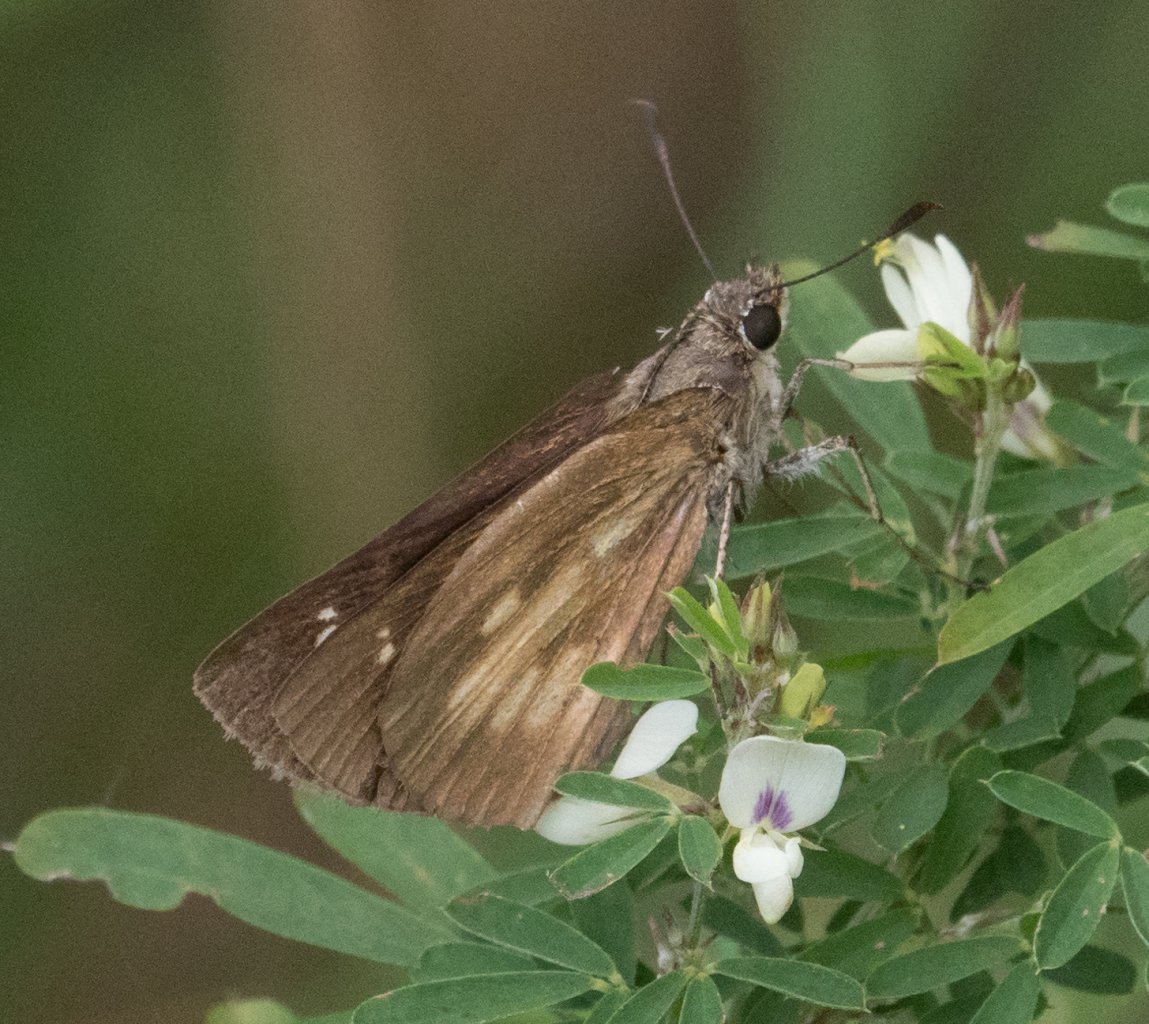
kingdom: Animalia
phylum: Arthropoda
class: Insecta
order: Lepidoptera
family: Hesperiidae
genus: Poanes
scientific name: Poanes viator
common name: Broad-winged Skipper
